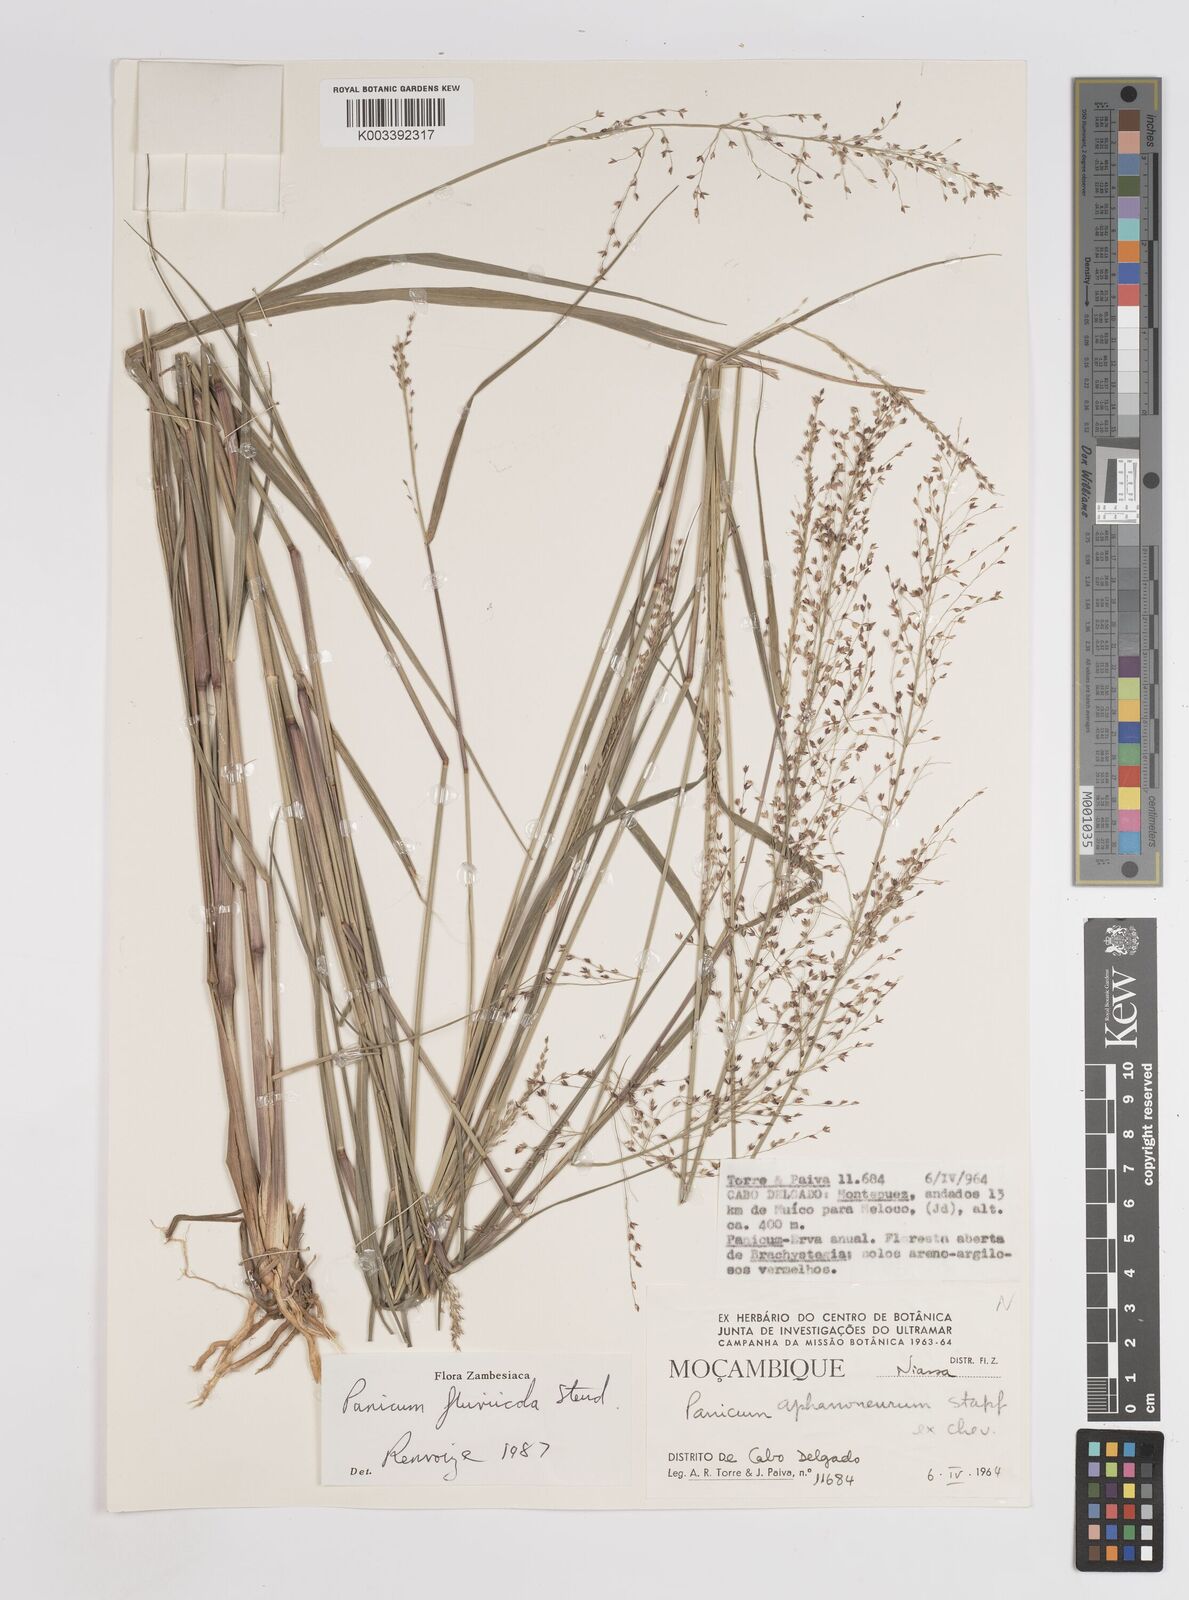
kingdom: Plantae
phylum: Tracheophyta
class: Liliopsida
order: Poales
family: Poaceae
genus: Panicum
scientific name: Panicum fluviicola
